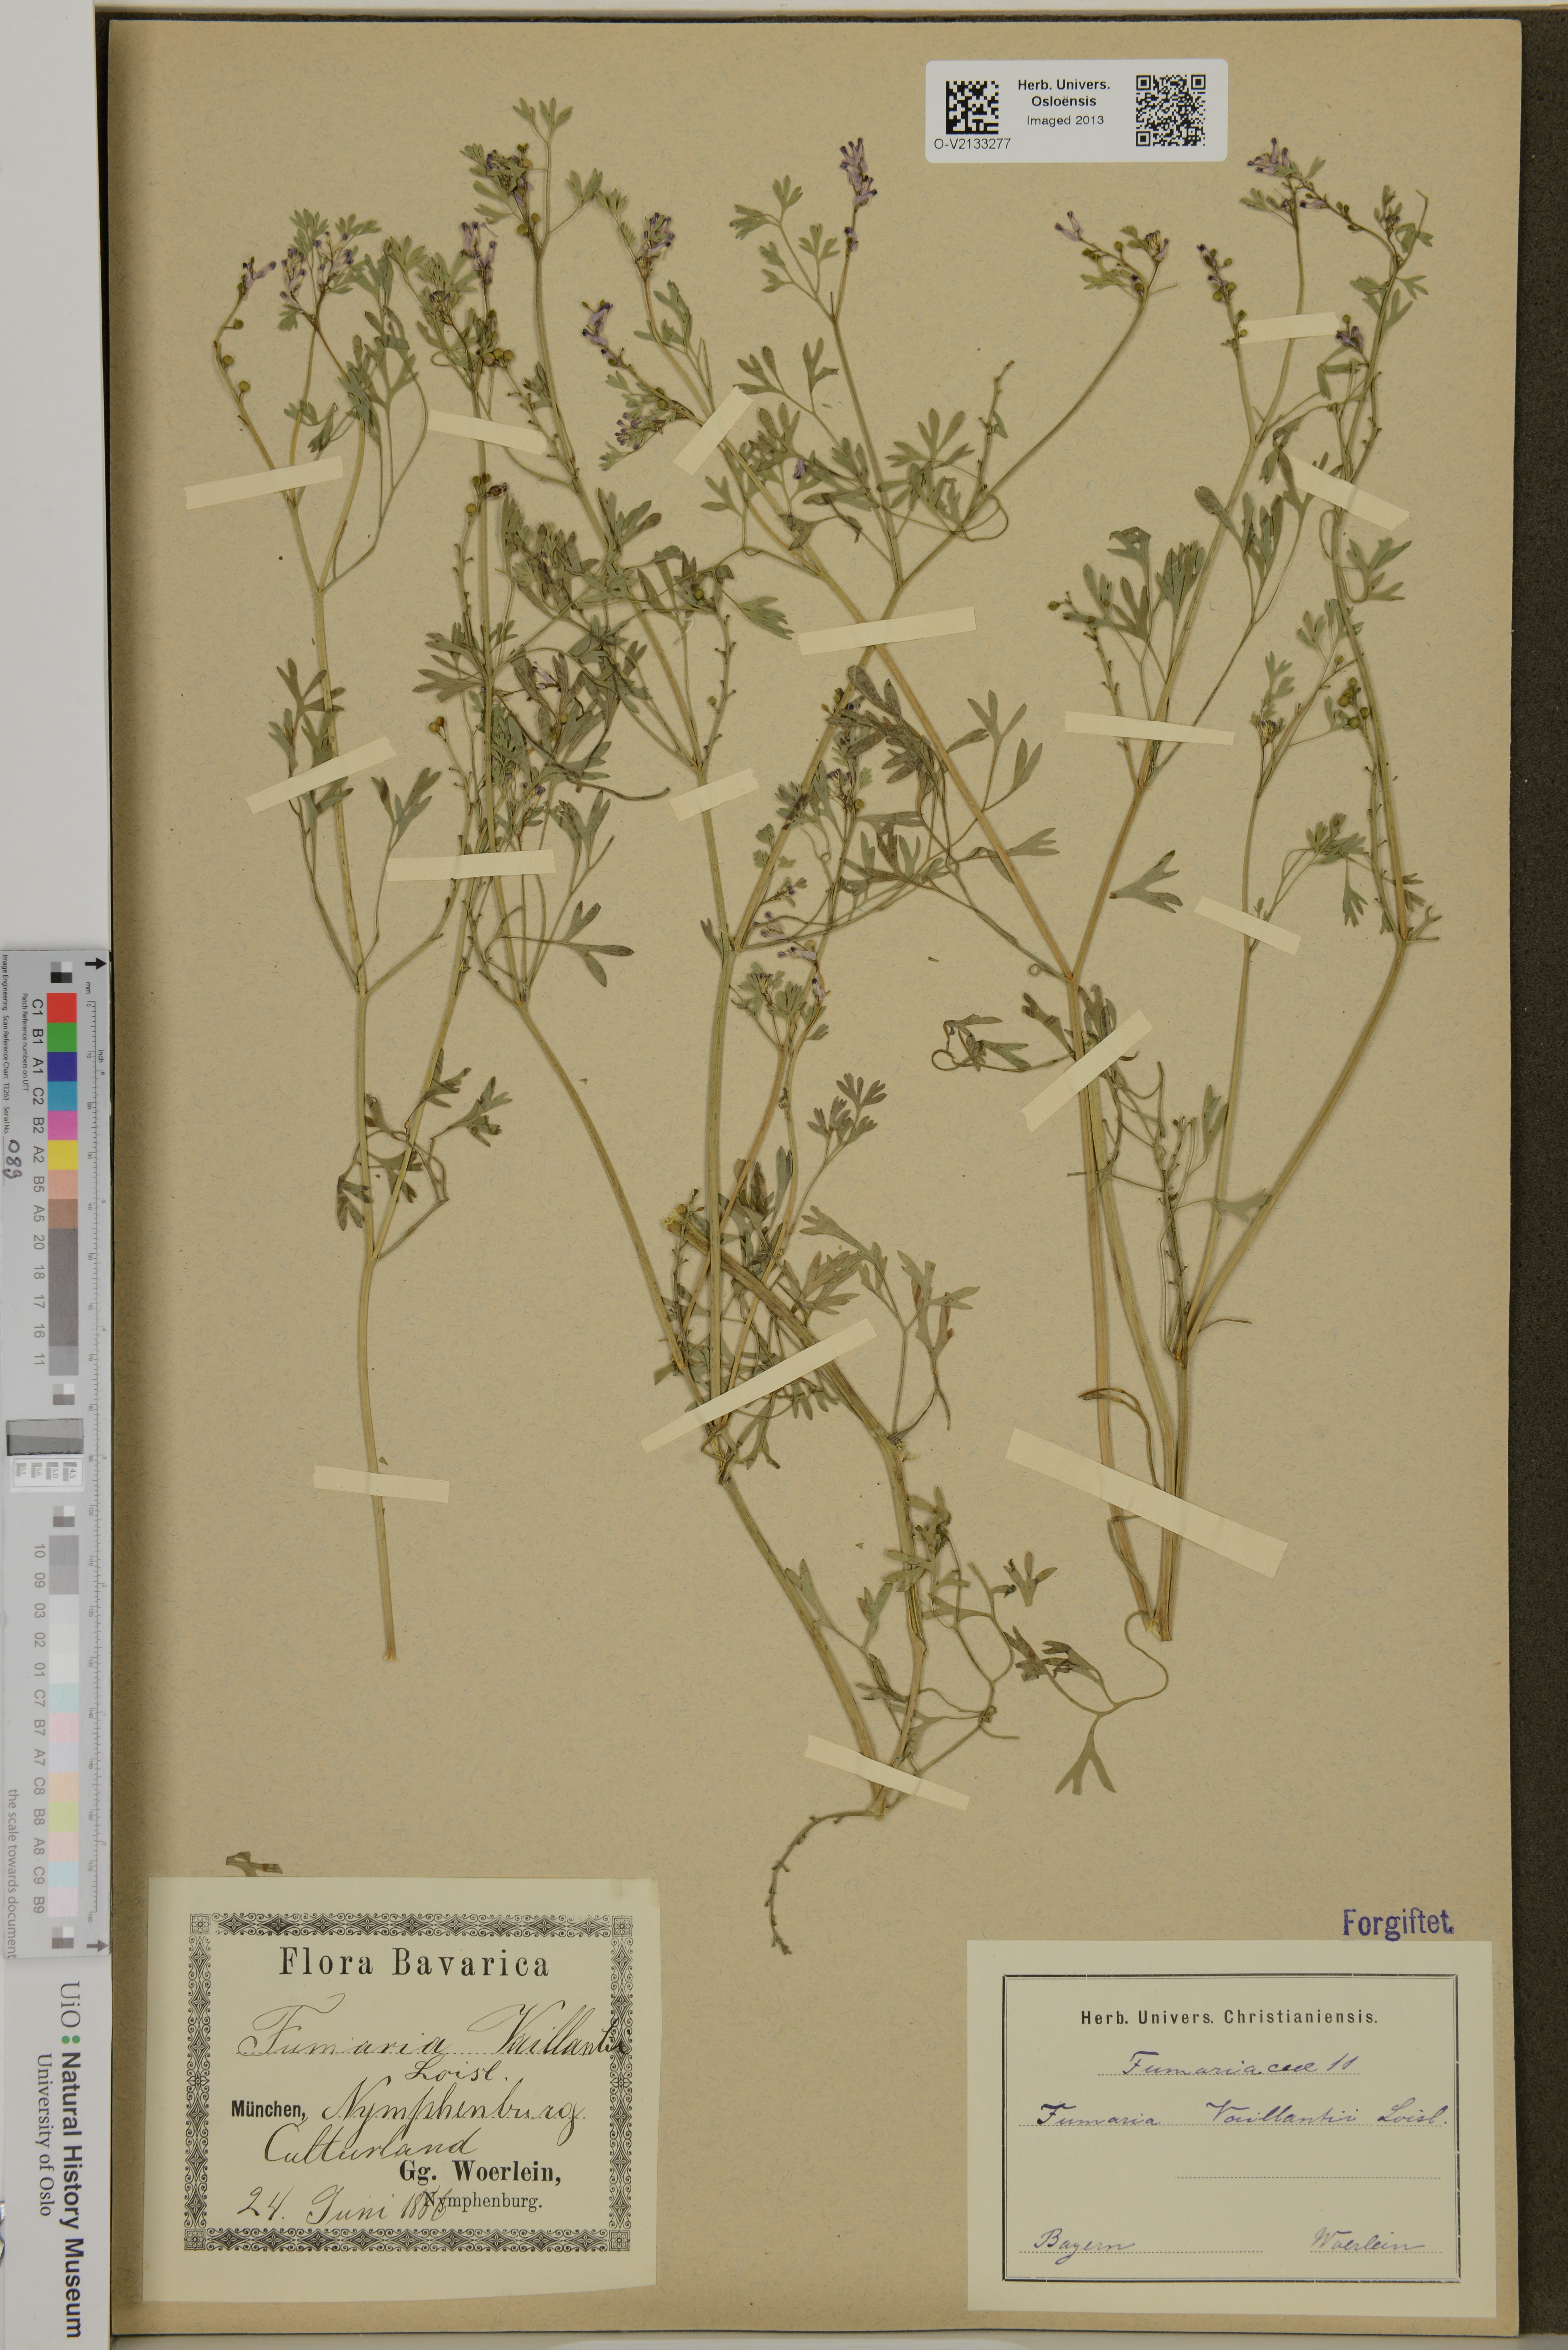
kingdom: Plantae
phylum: Tracheophyta
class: Magnoliopsida
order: Ranunculales
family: Papaveraceae
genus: Fumaria
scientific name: Fumaria vaillantii
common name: Few-flowered fumitory
